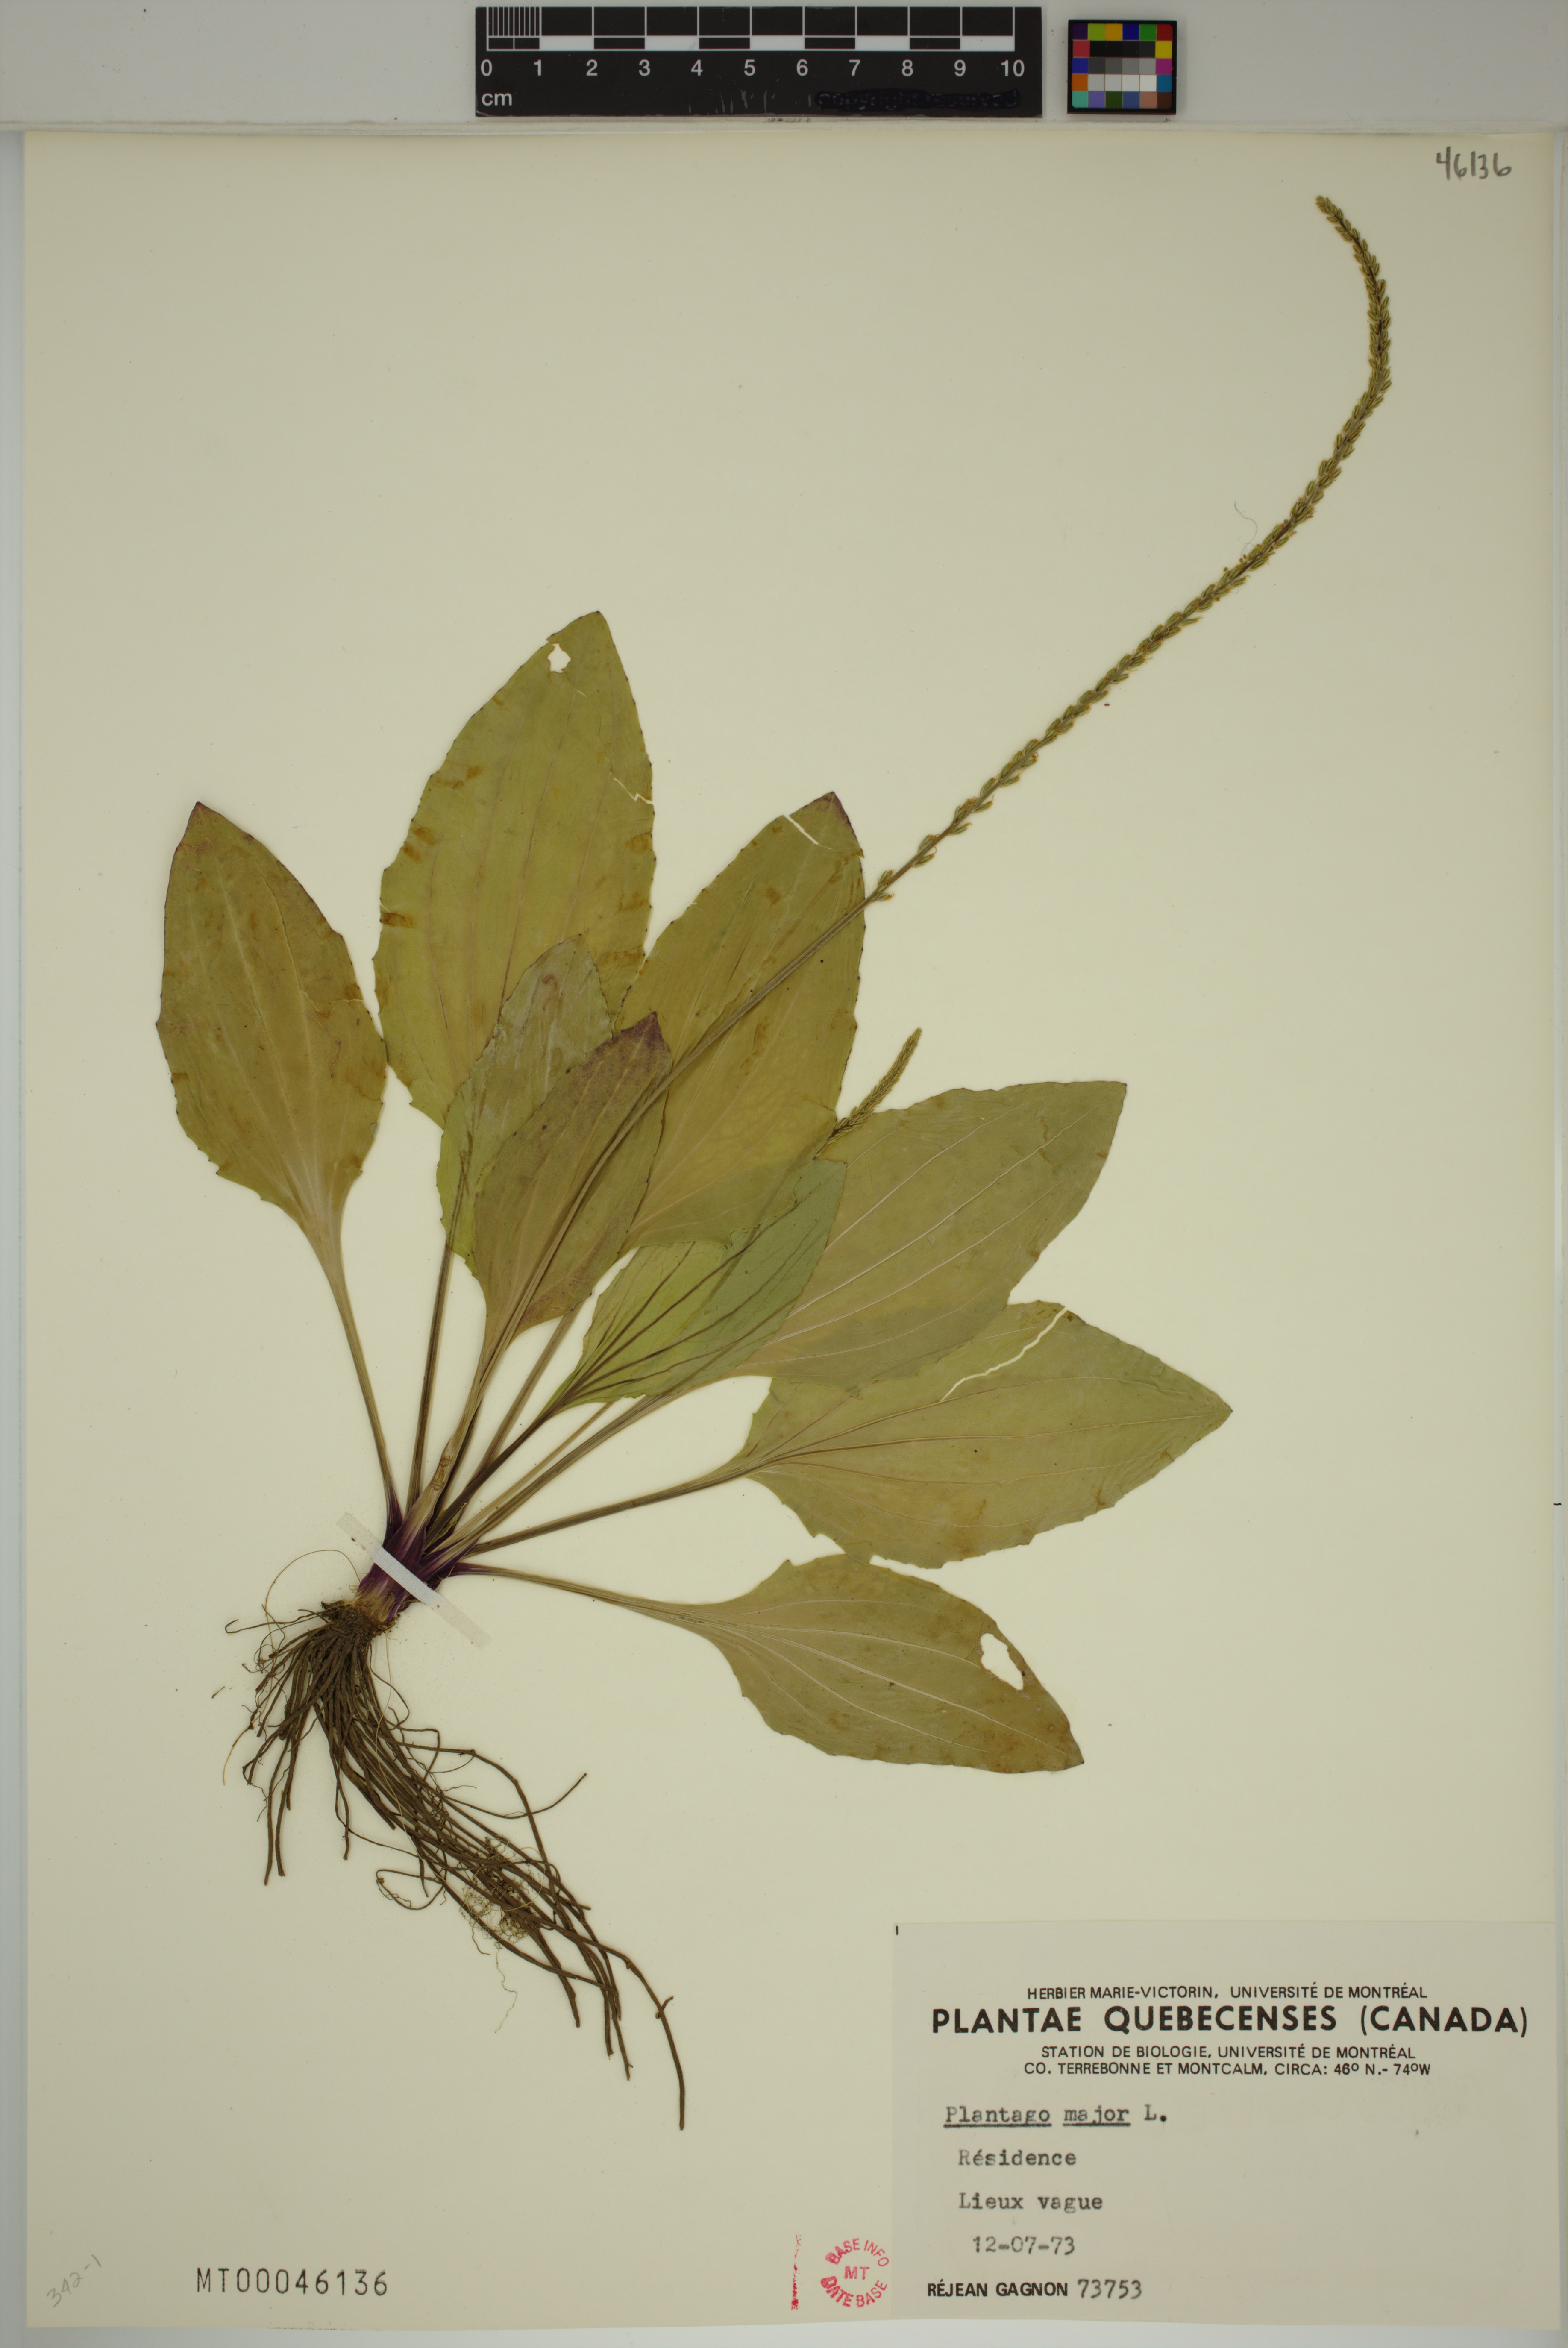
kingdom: Plantae
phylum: Tracheophyta
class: Magnoliopsida
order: Lamiales
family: Plantaginaceae
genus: Plantago
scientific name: Plantago major
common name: Common plantain
